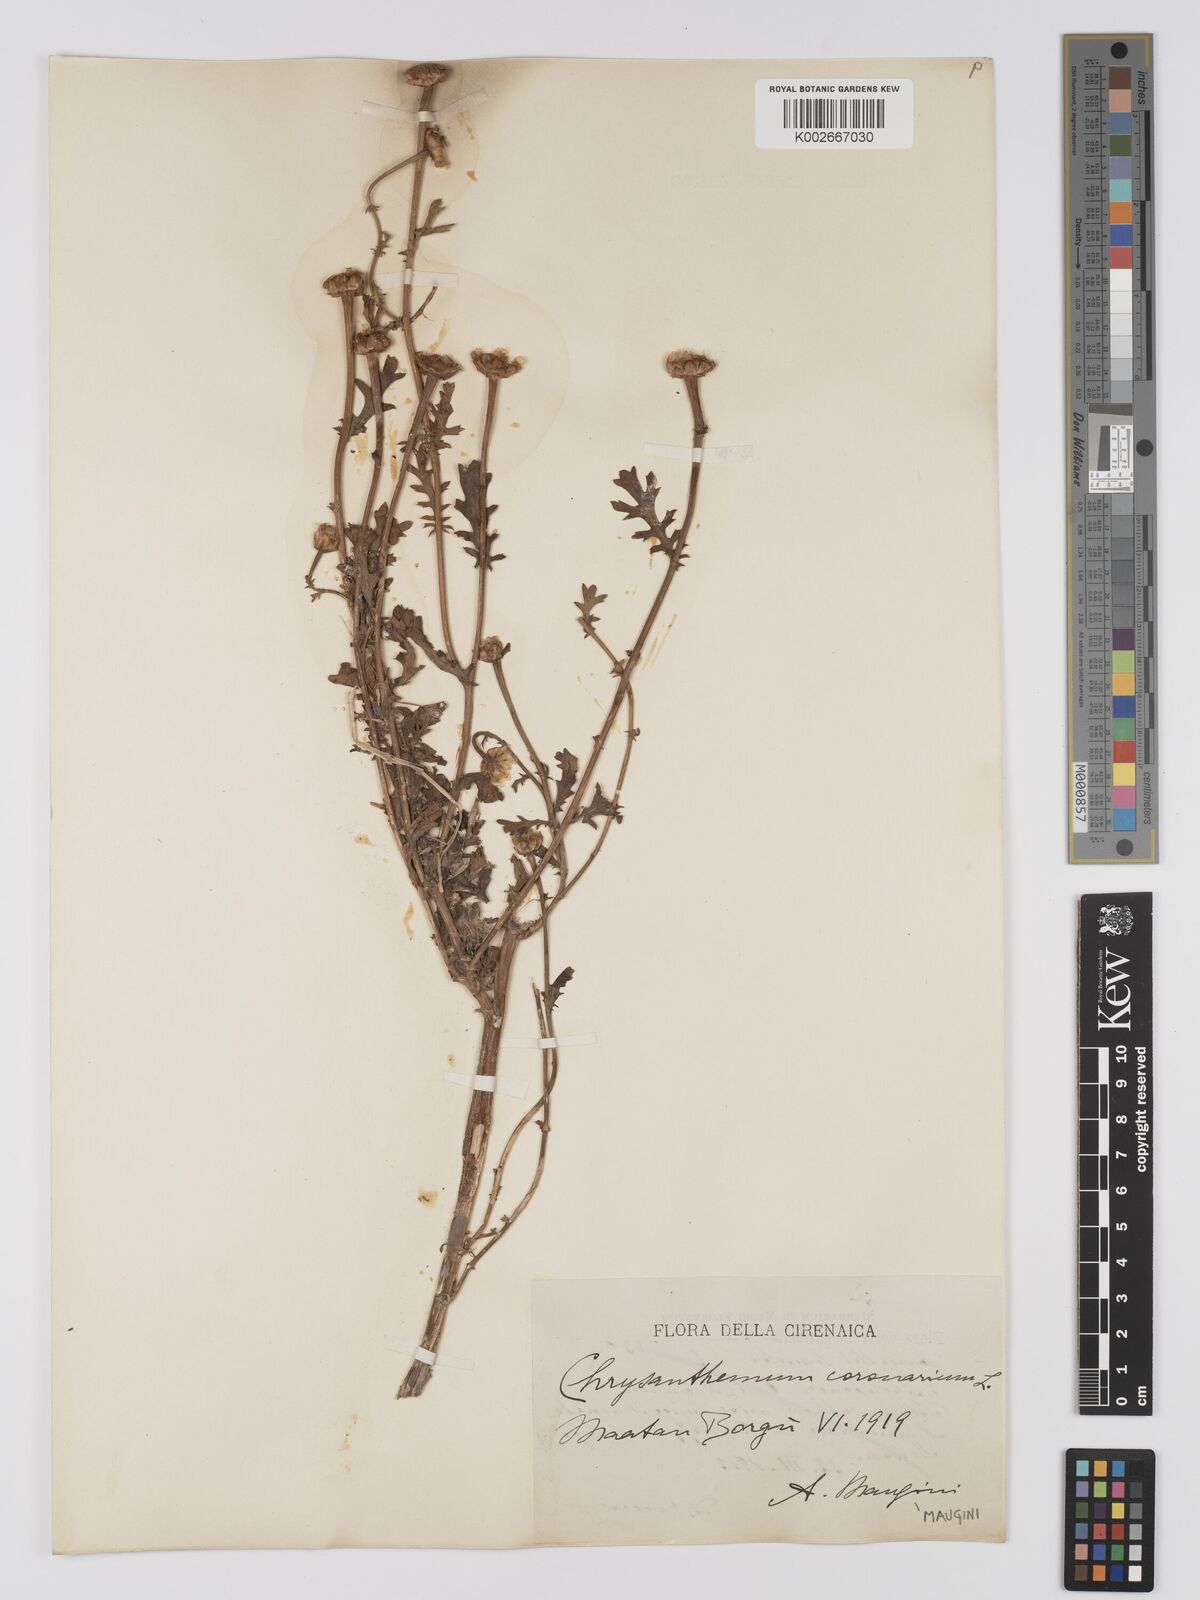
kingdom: Plantae
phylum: Tracheophyta
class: Magnoliopsida
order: Asterales
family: Asteraceae
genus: Glebionis
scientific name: Glebionis coronaria
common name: Crowndaisy
